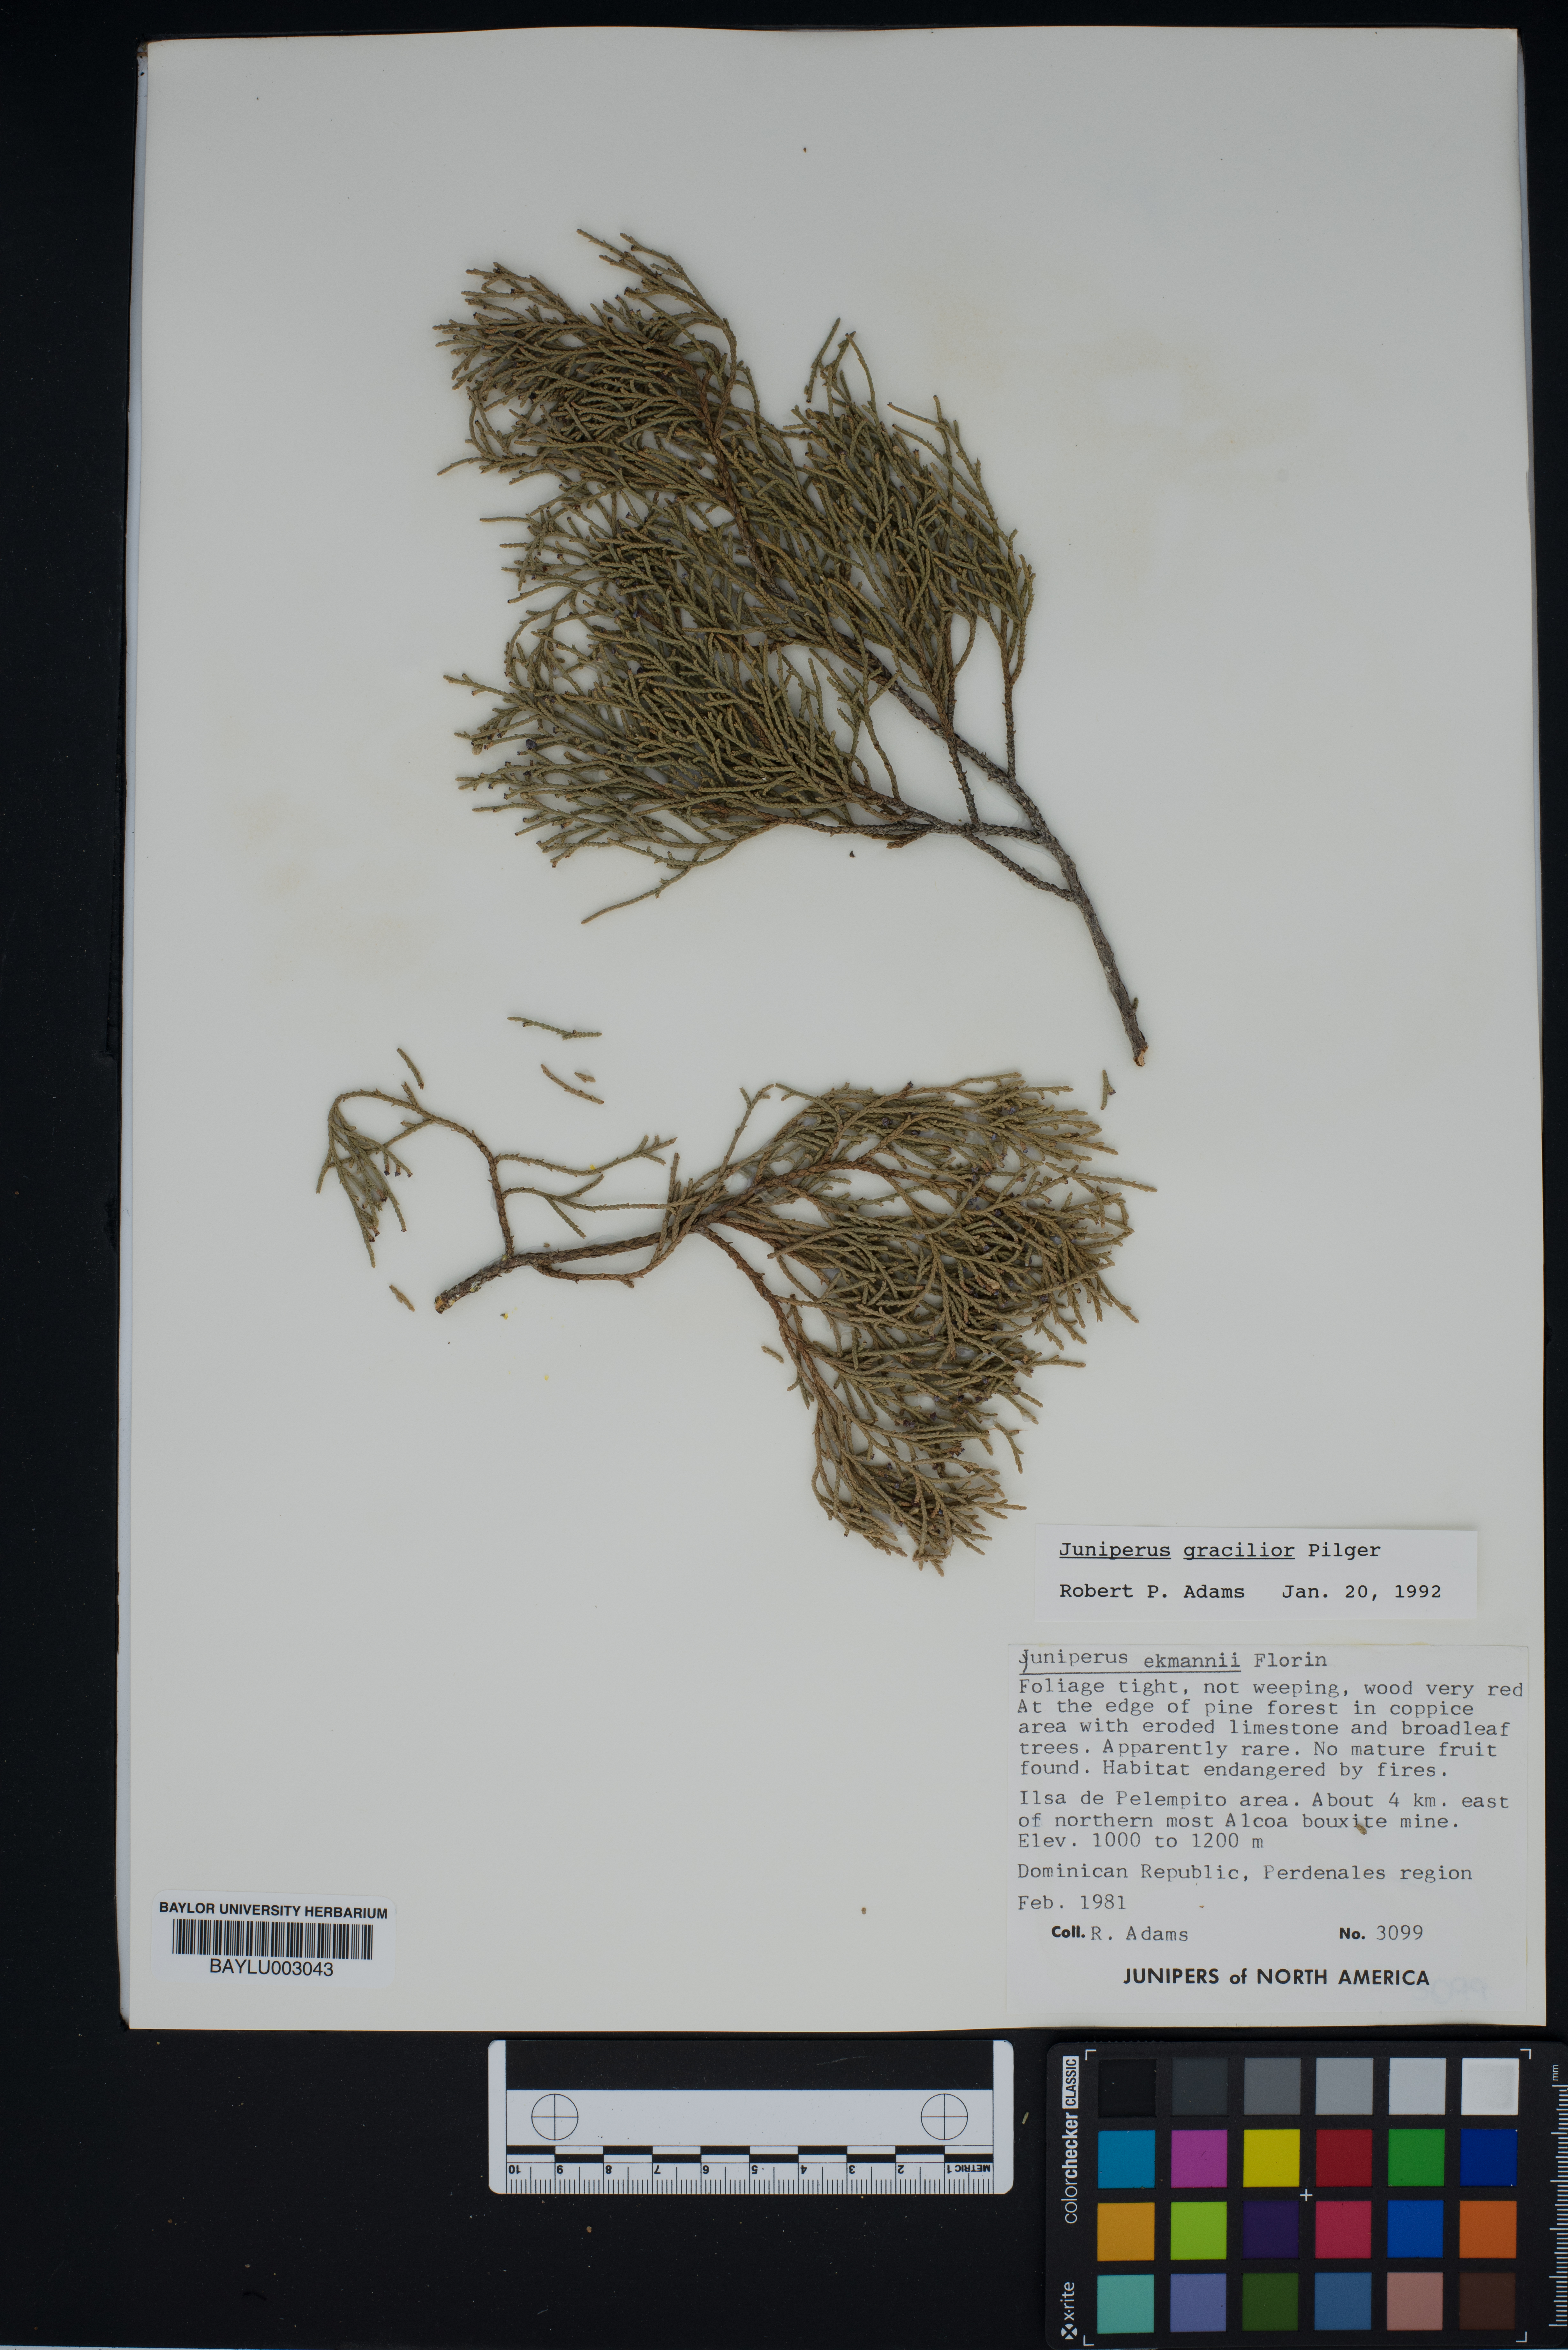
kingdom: Plantae
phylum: Tracheophyta
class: Pinopsida
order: Pinales
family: Cupressaceae
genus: Juniperus
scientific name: Juniperus gracilior
